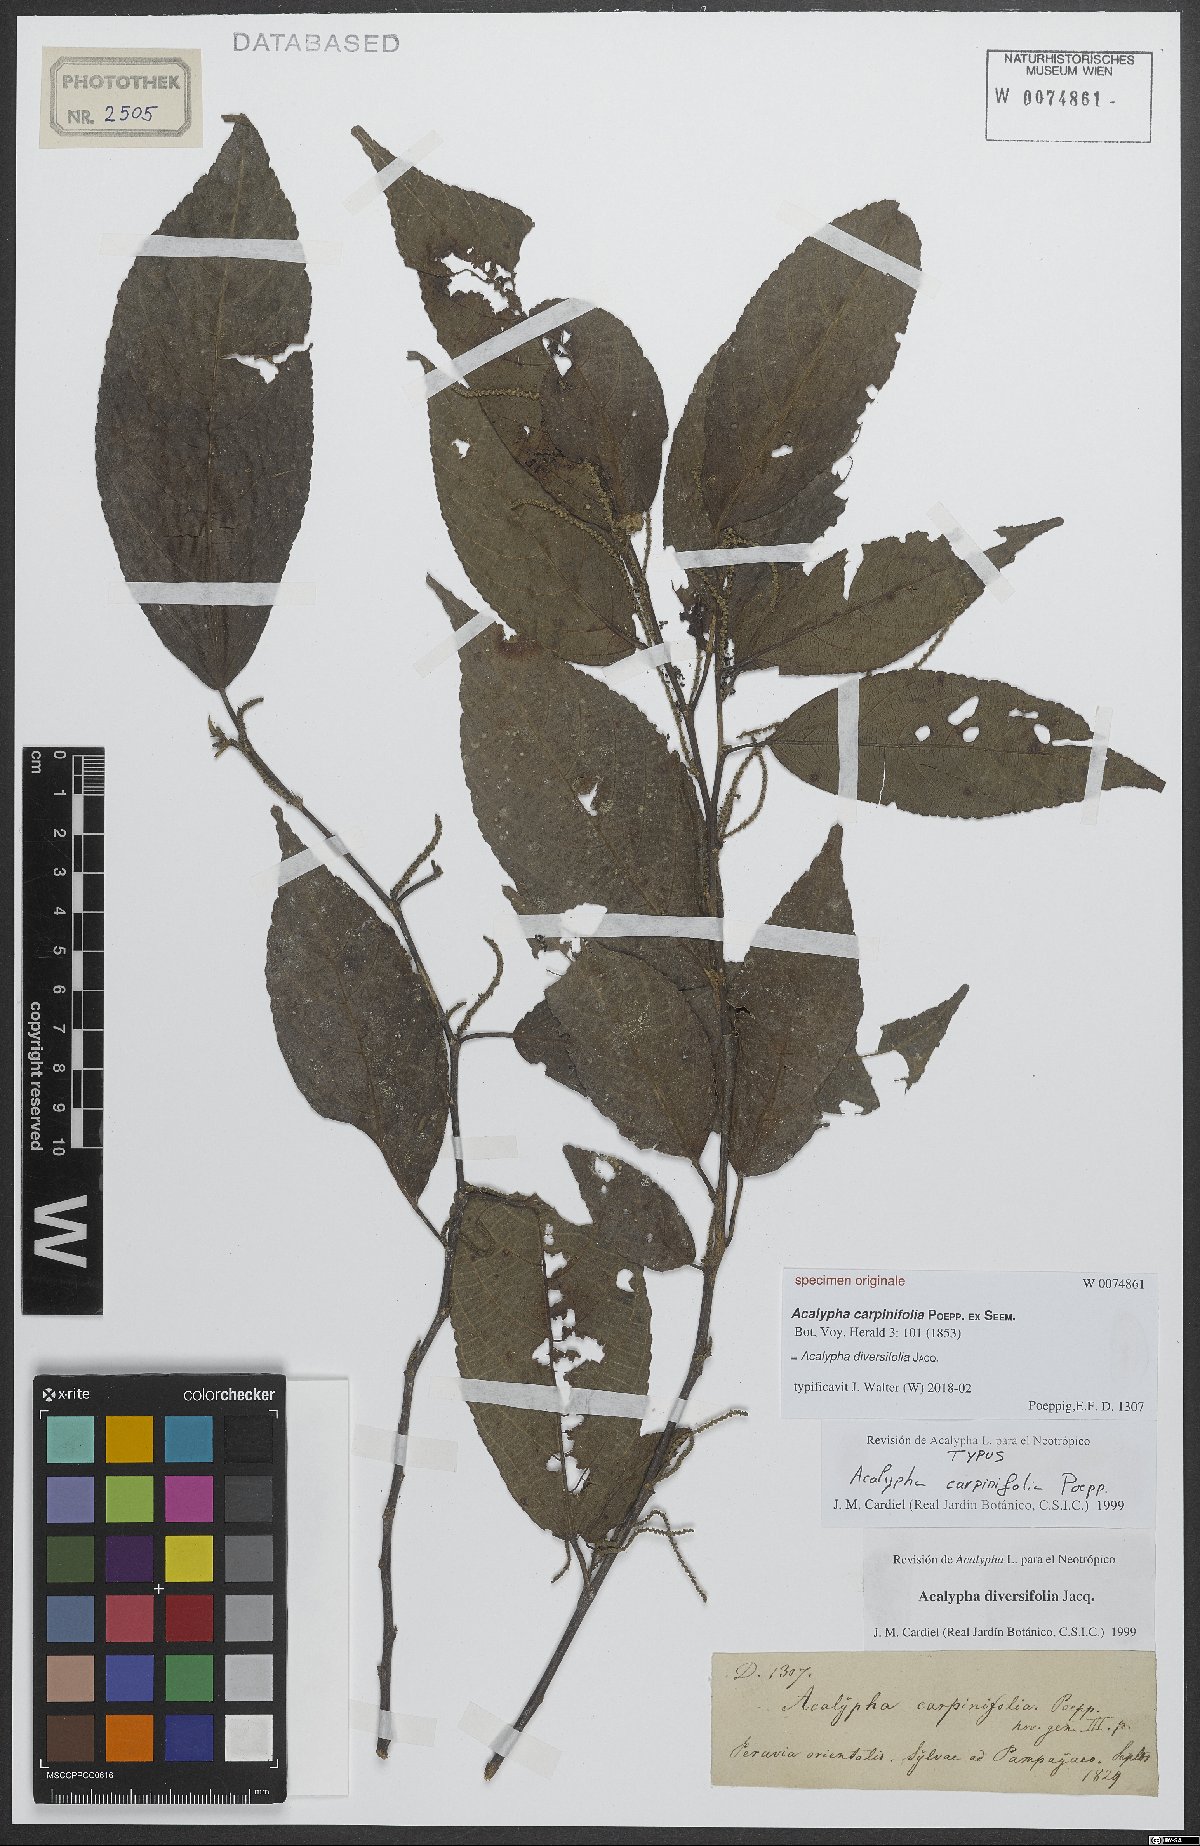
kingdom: Plantae
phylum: Tracheophyta
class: Magnoliopsida
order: Malpighiales
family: Euphorbiaceae
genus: Acalypha
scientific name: Acalypha diversifolia
